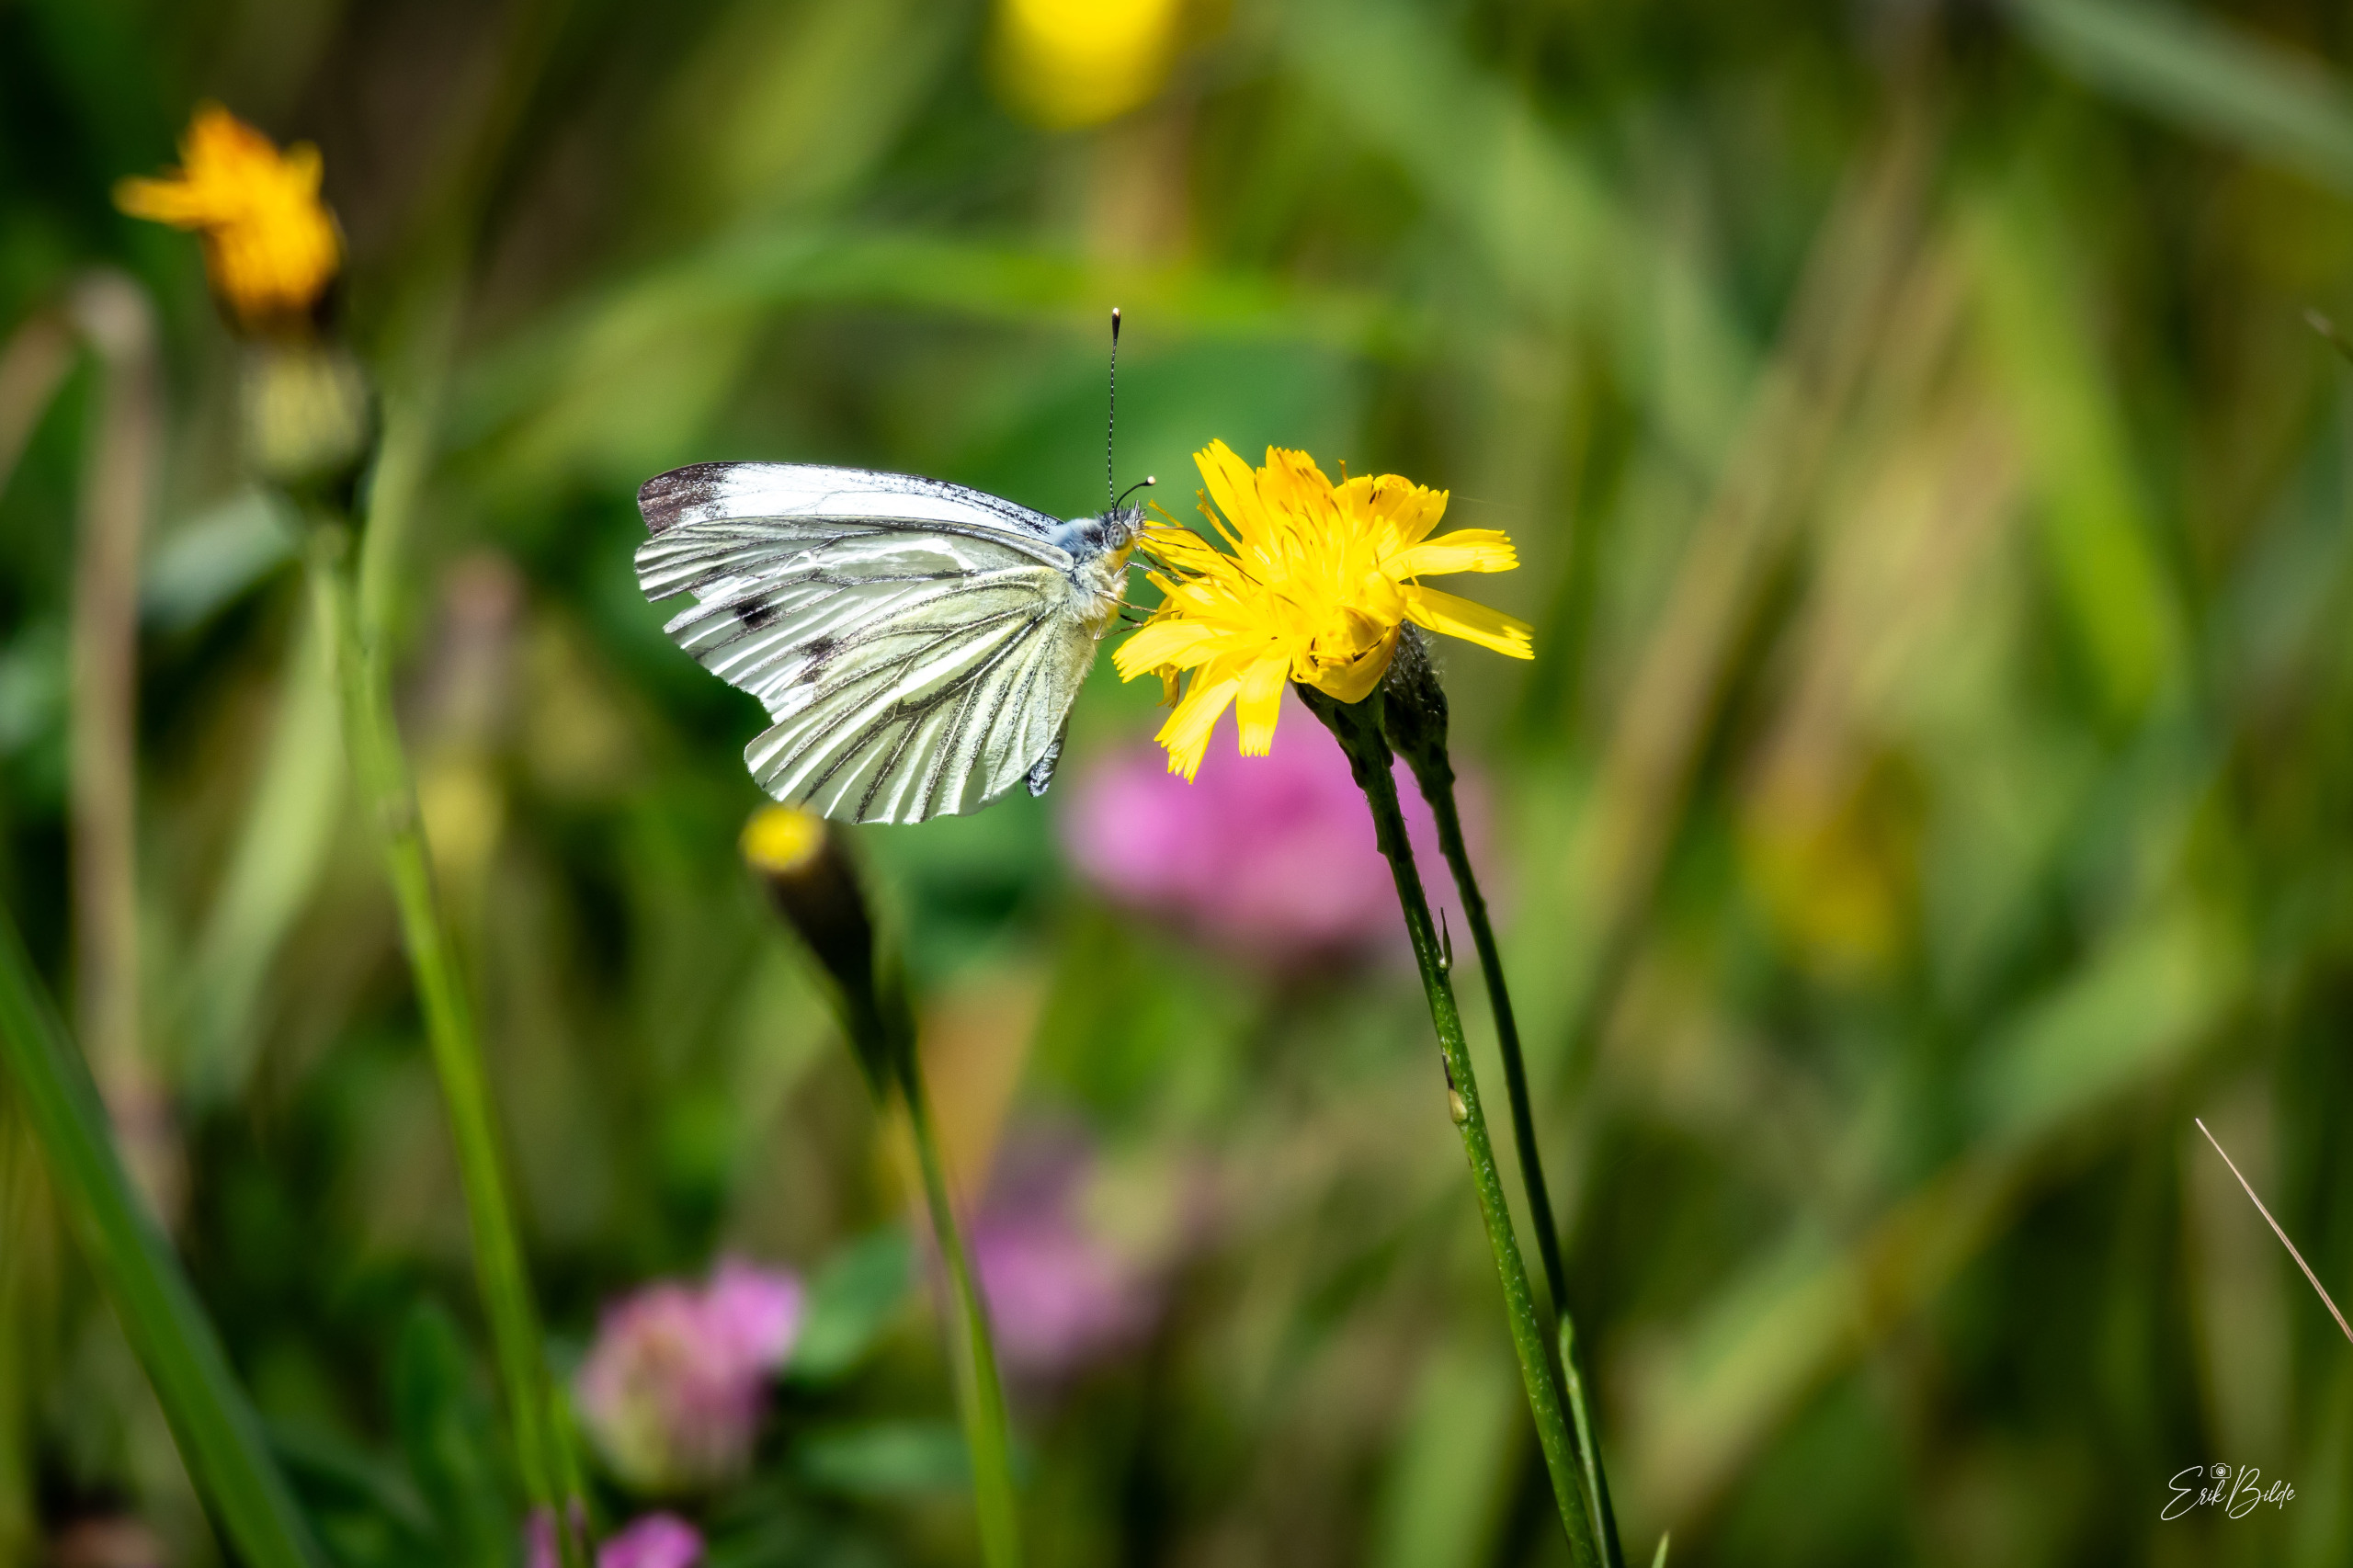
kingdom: Animalia
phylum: Arthropoda
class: Insecta
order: Lepidoptera
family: Pieridae
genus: Pieris
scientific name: Pieris napi
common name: Grønåret kålsommerfugl
